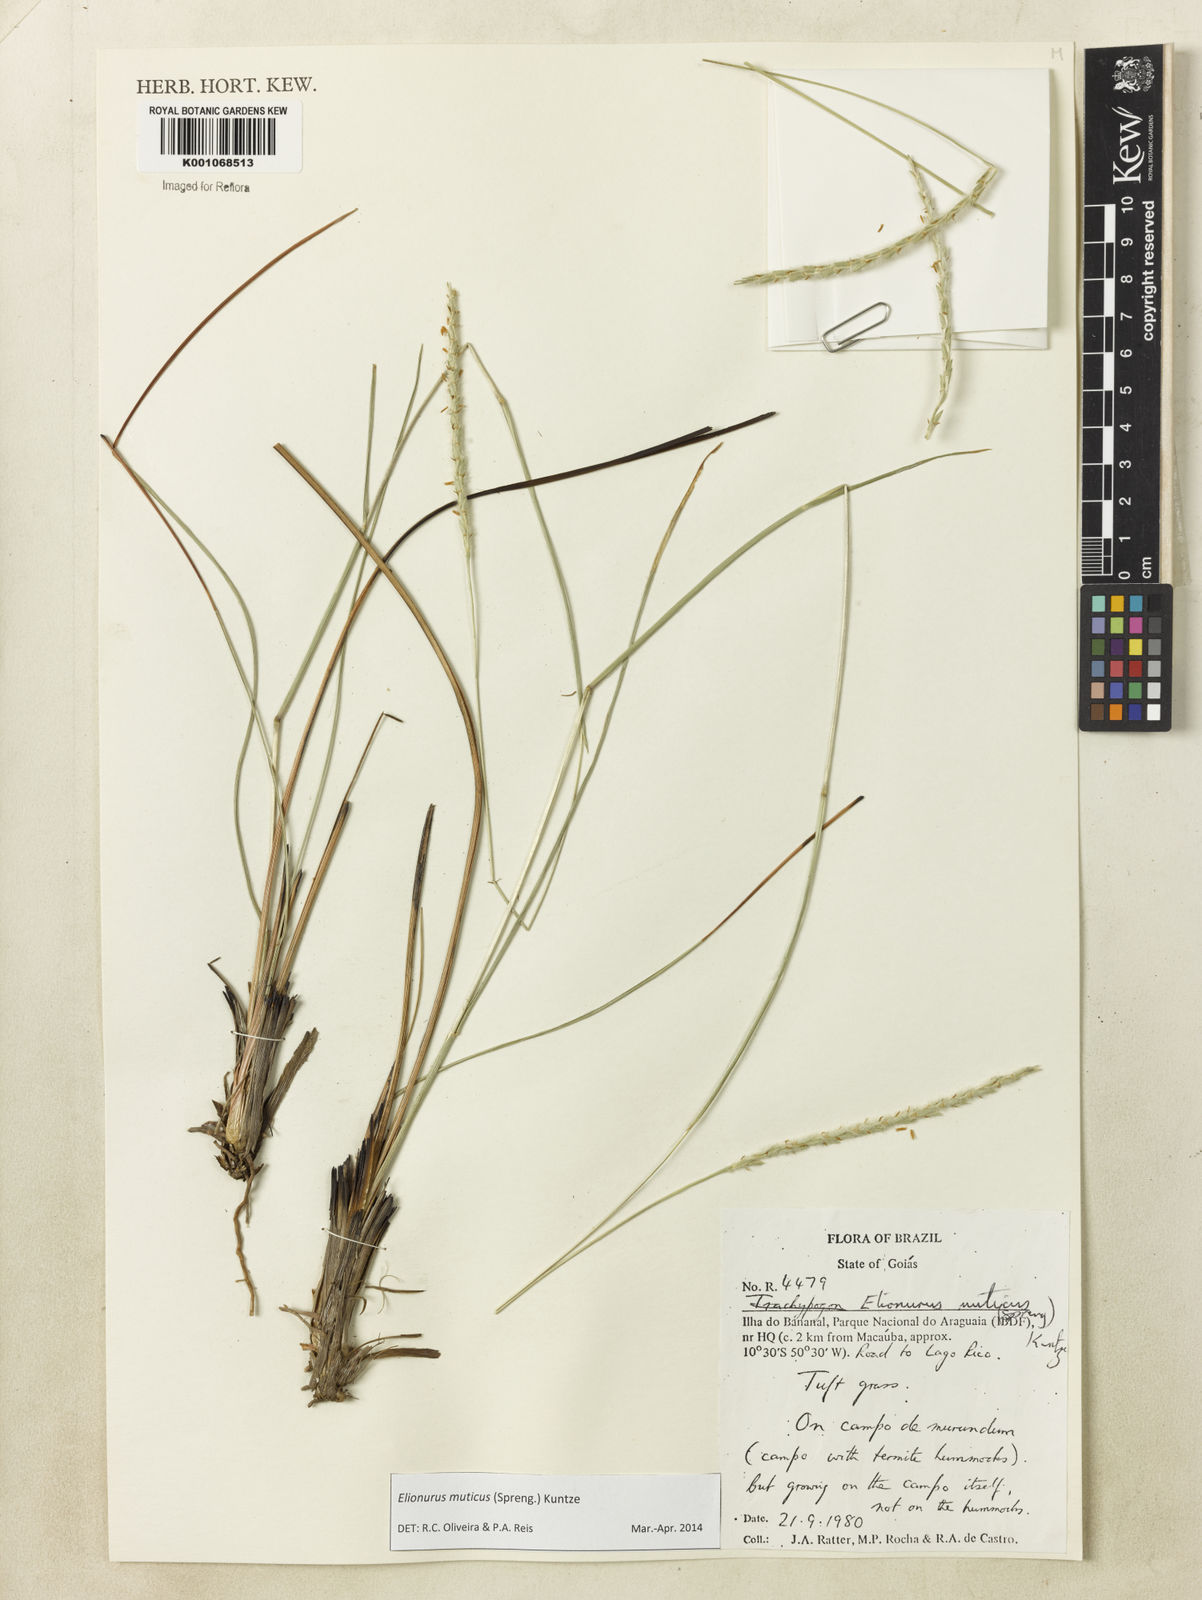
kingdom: Plantae
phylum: Tracheophyta
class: Liliopsida
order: Poales
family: Poaceae
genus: Elionurus
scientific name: Elionurus muticus
